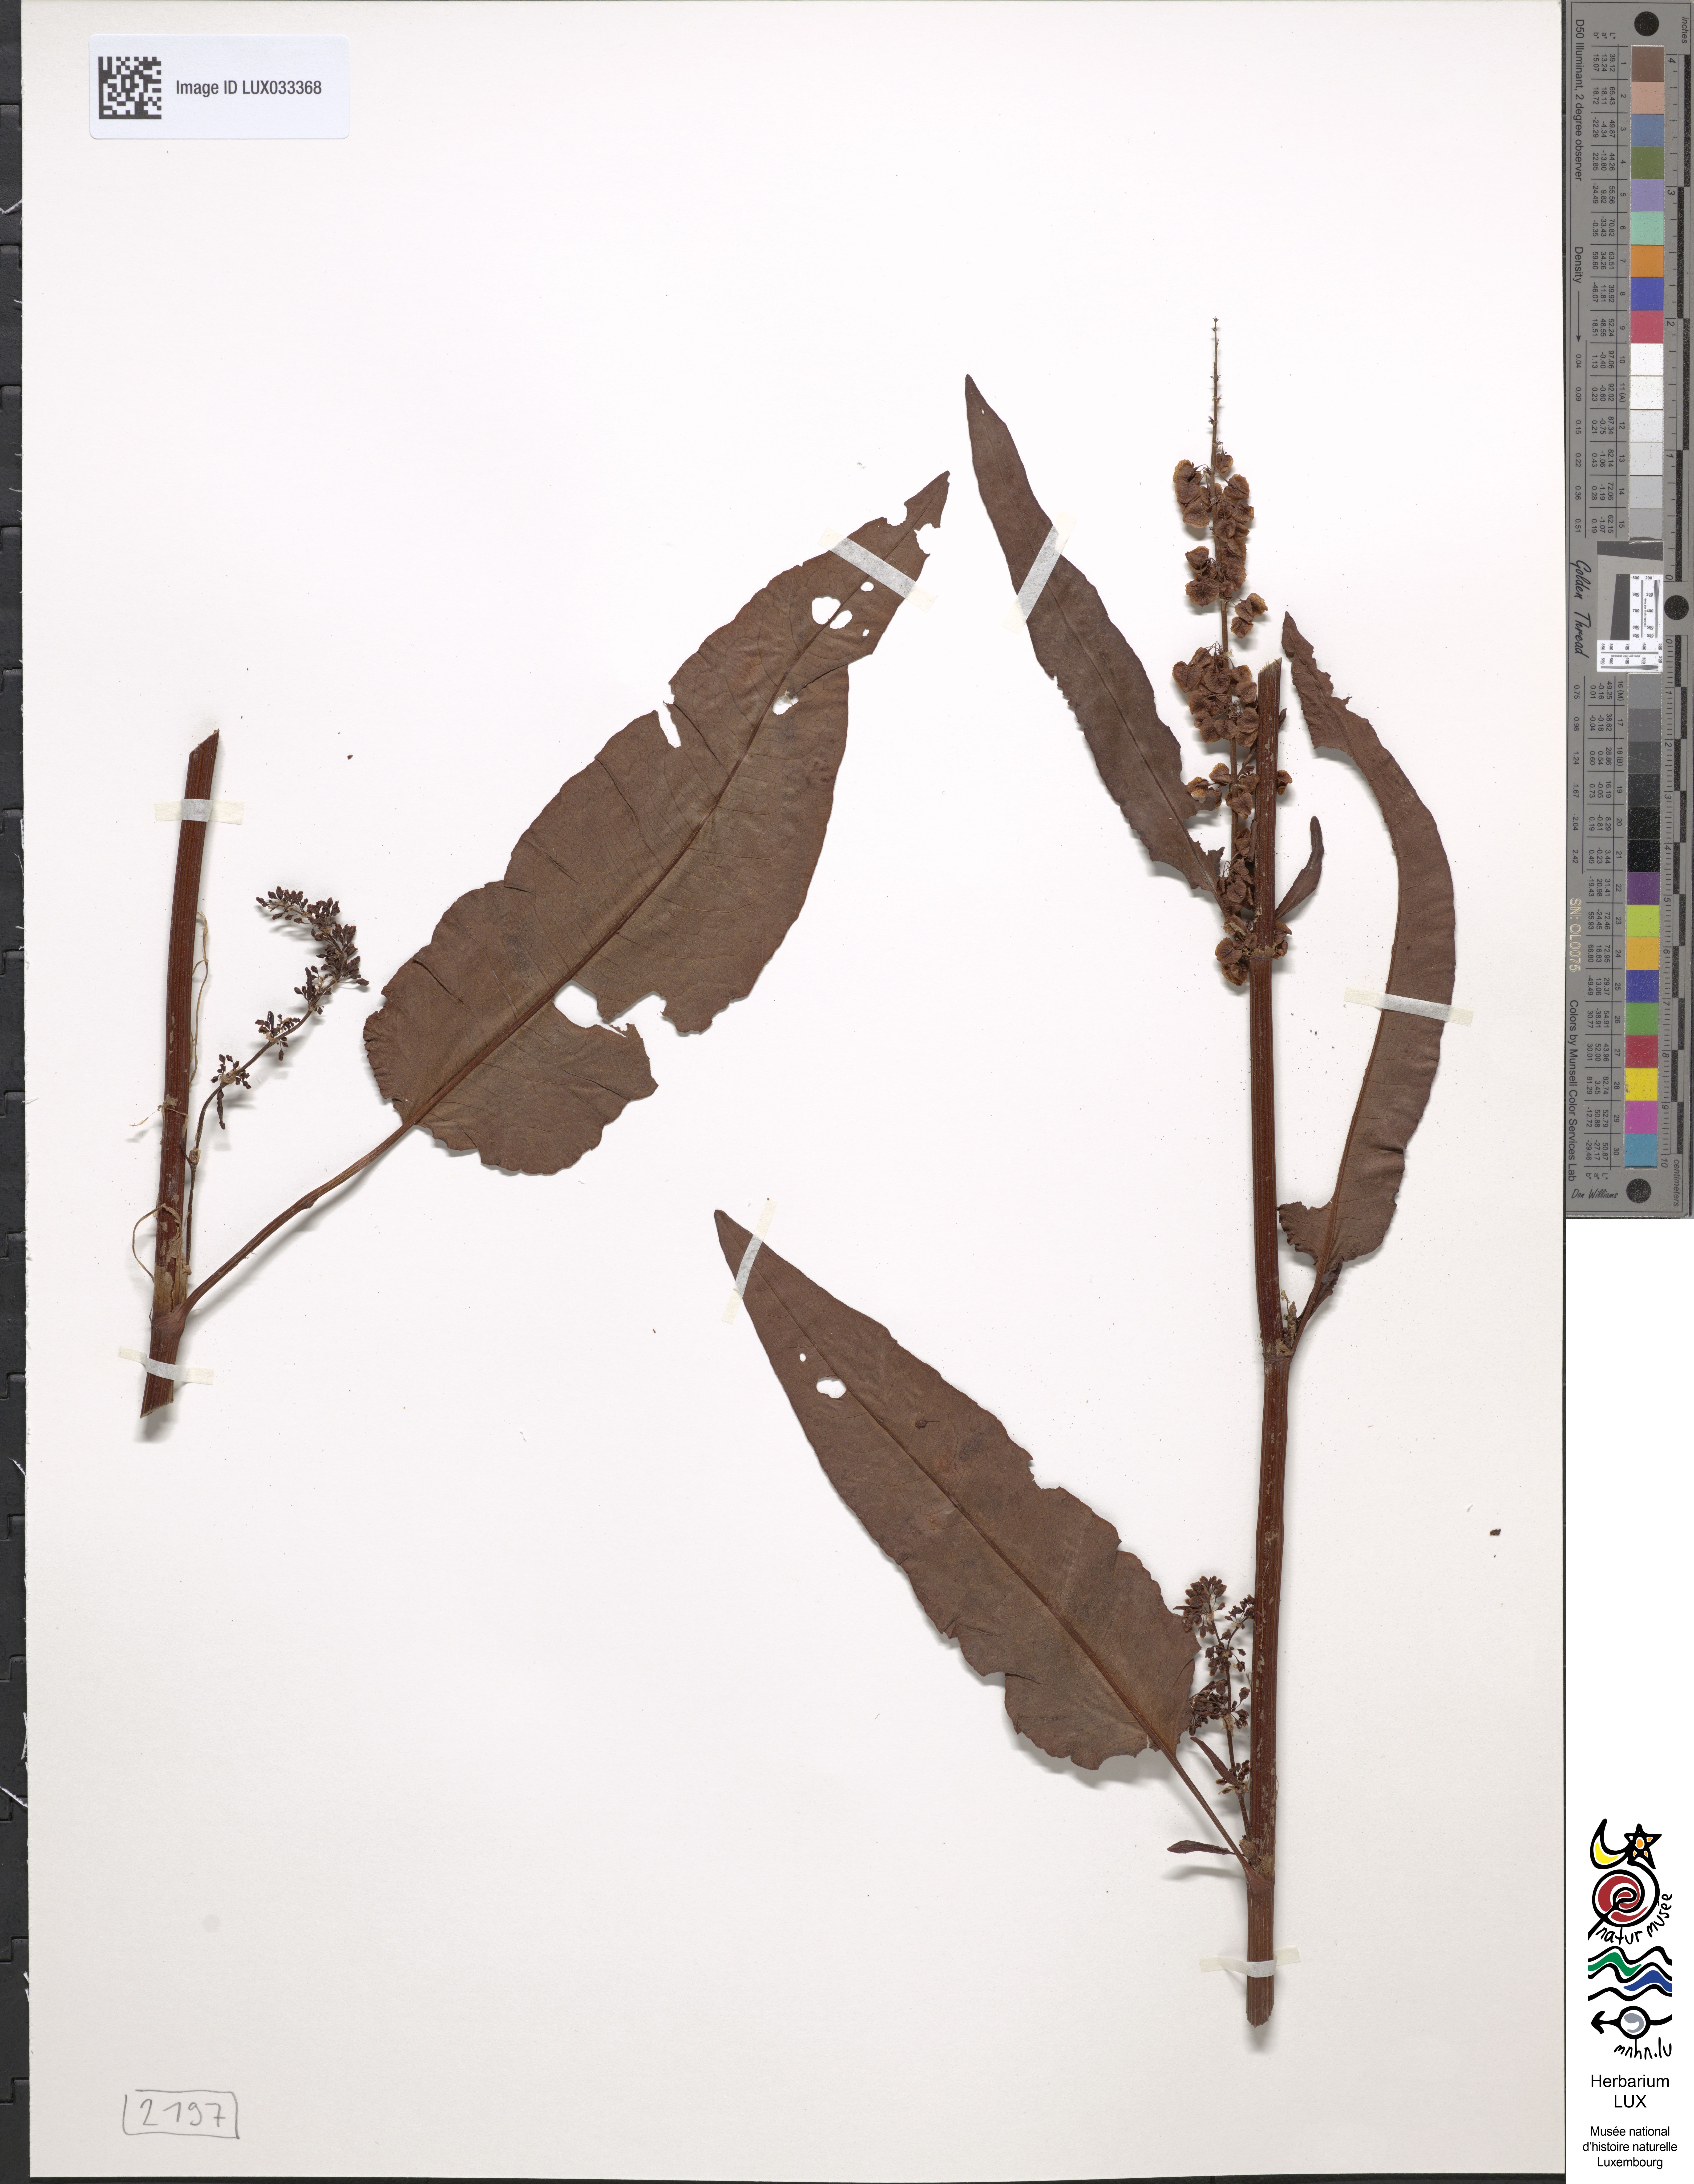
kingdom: Plantae
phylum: Tracheophyta
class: Magnoliopsida
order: Caryophyllales
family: Polygonaceae
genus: Rumex
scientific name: Rumex
